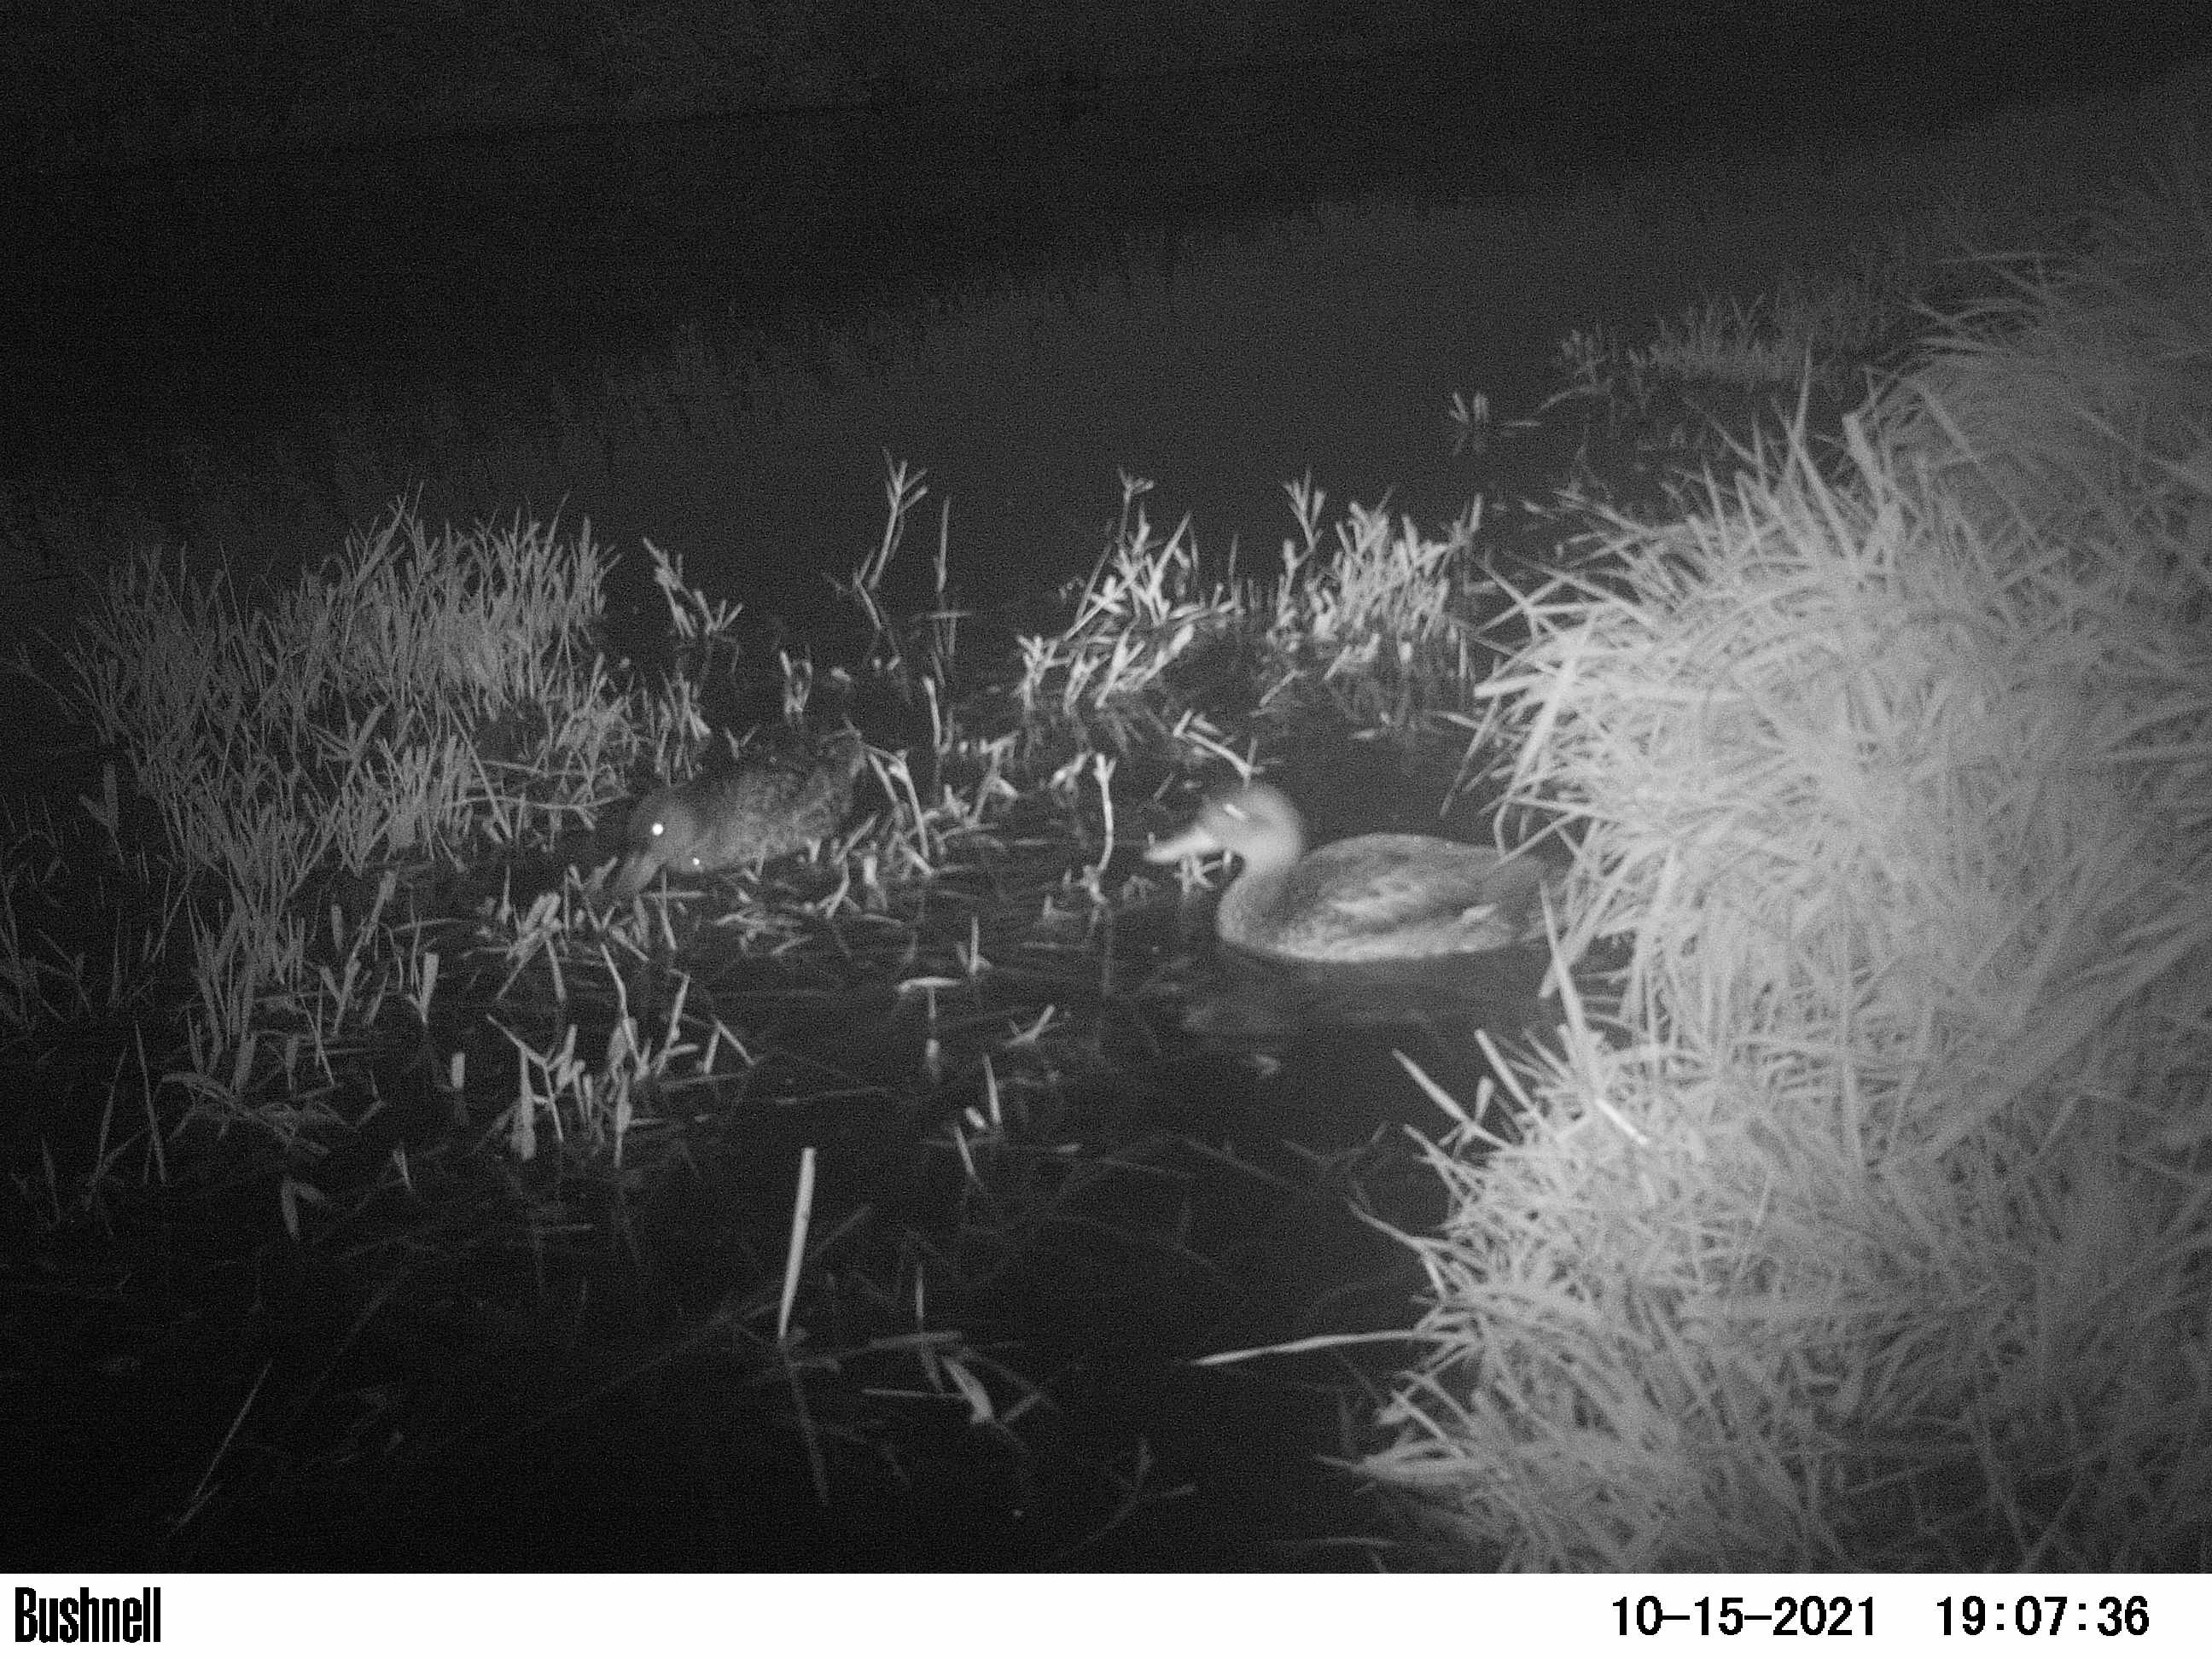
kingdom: Animalia
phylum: Chordata
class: Aves
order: Anseriformes
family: Anatidae
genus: Anas
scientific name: Anas
